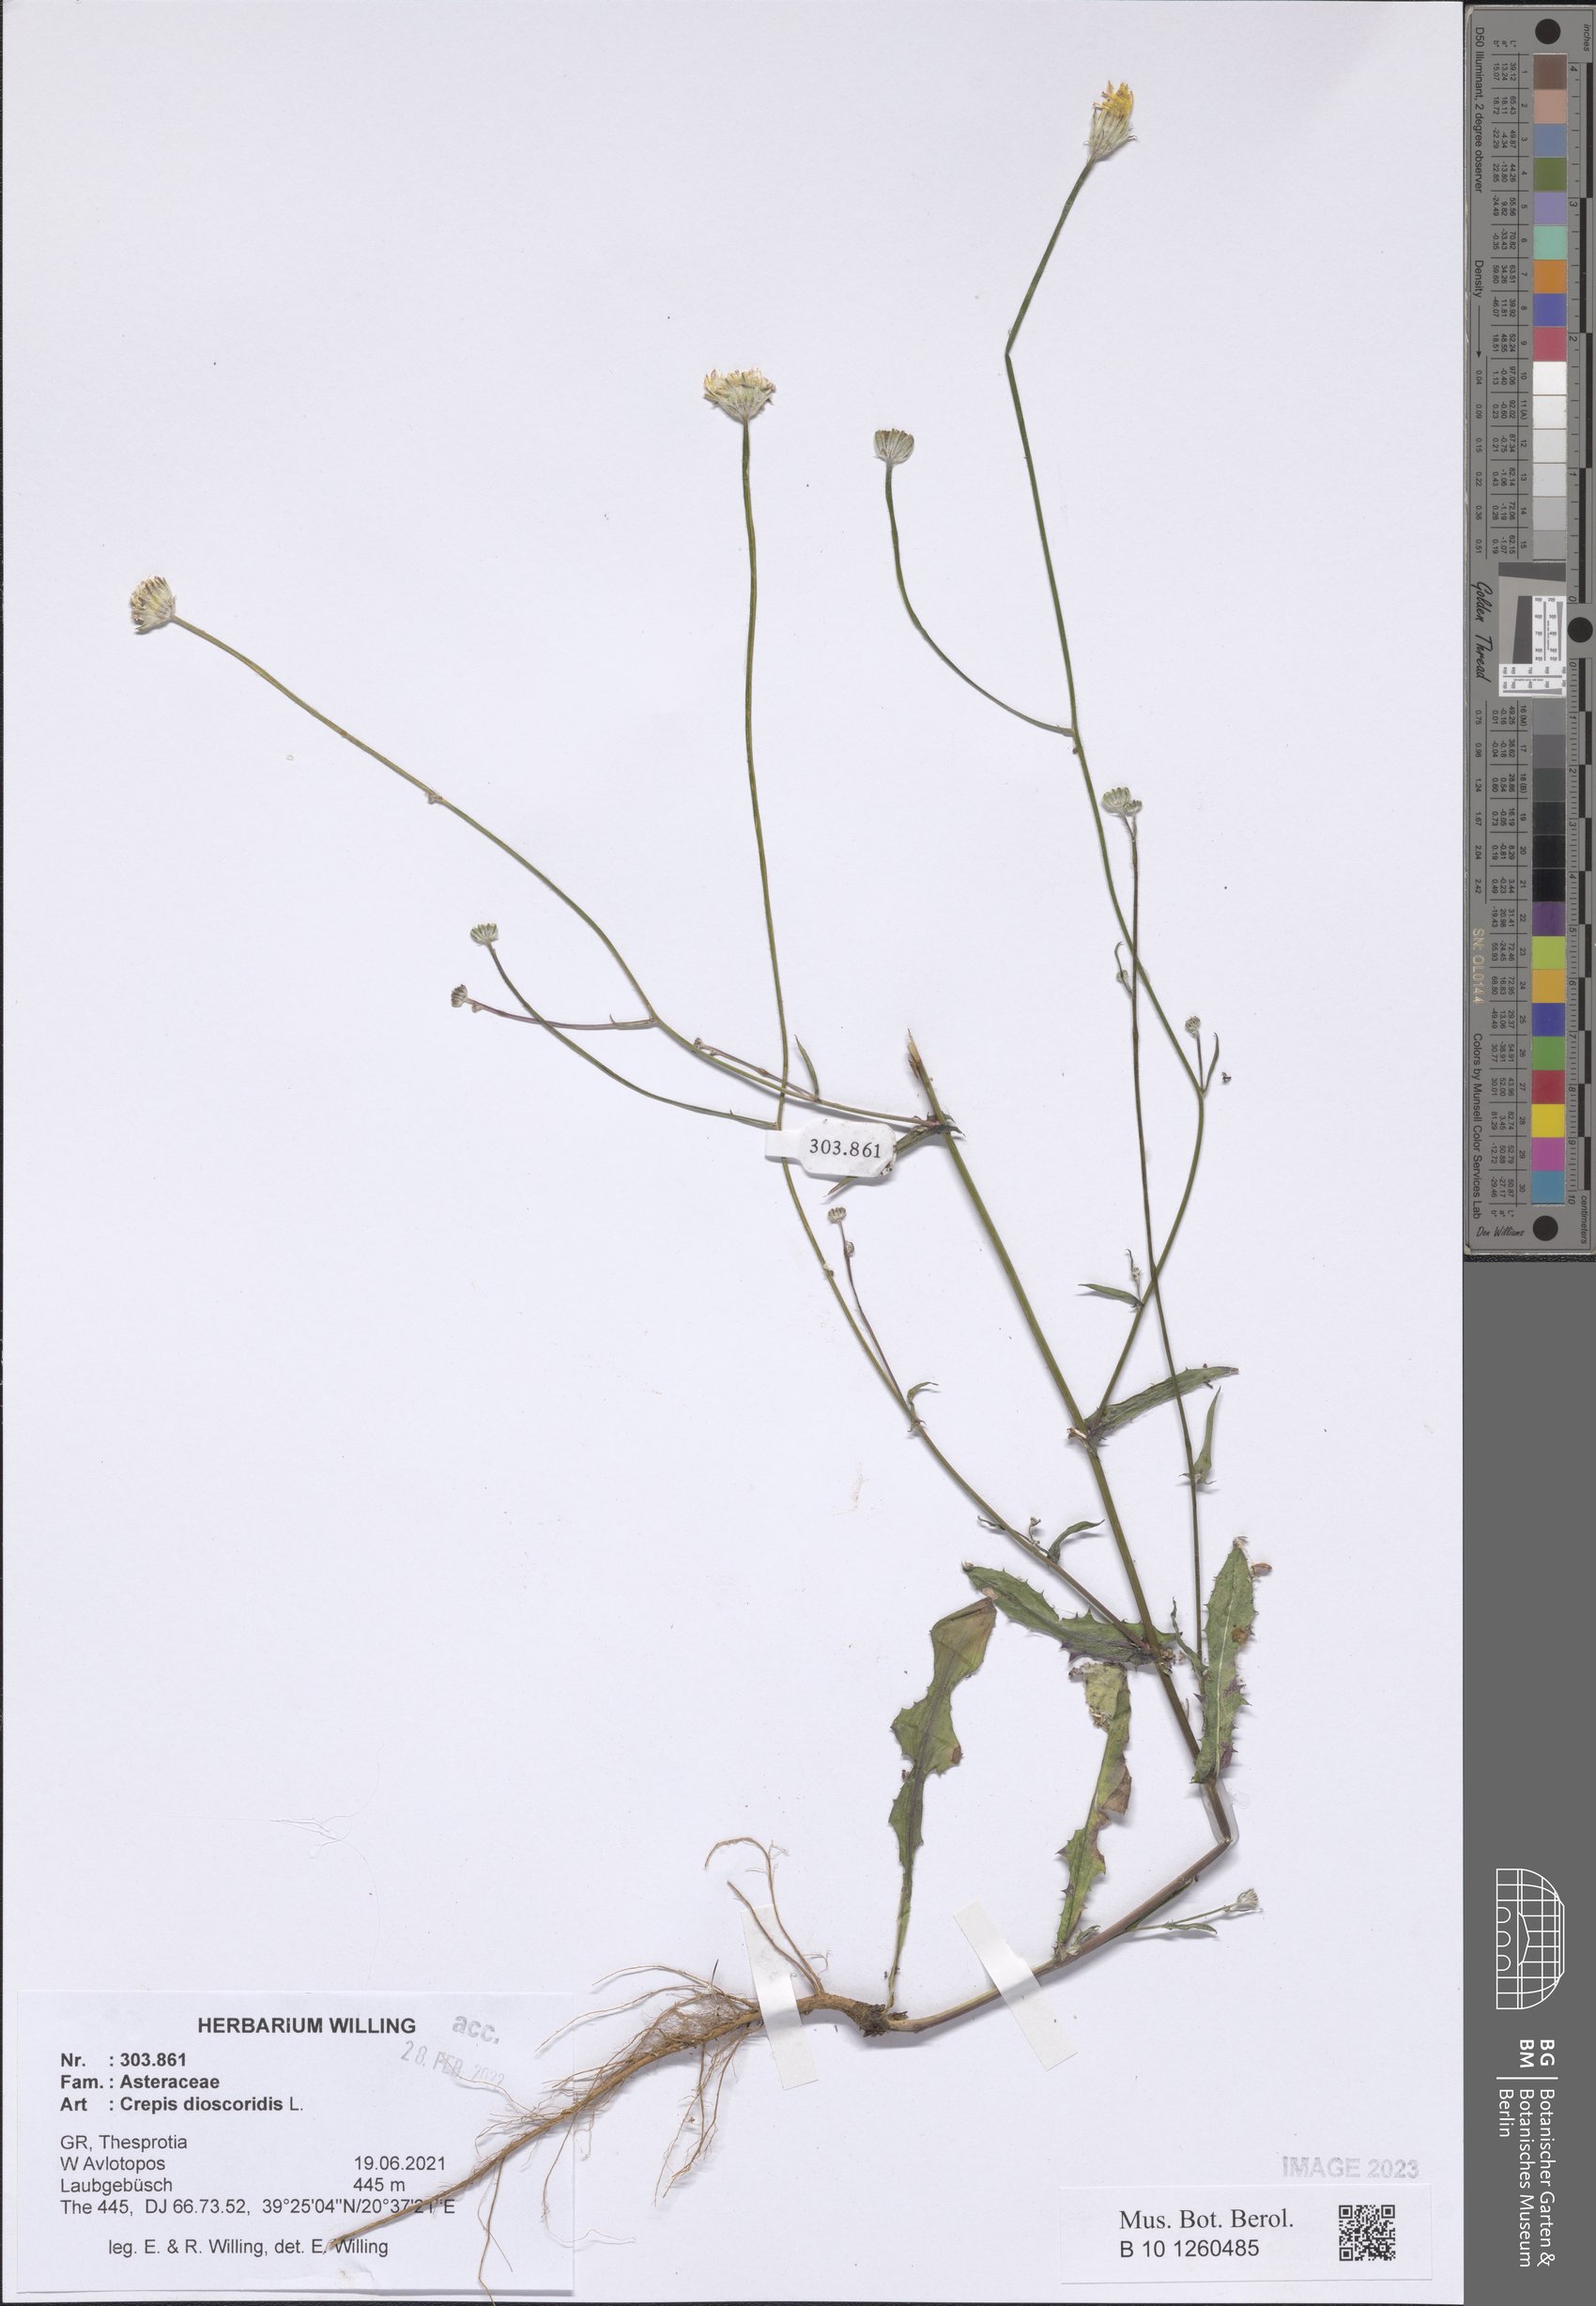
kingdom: Plantae
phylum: Tracheophyta
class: Magnoliopsida
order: Asterales
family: Asteraceae
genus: Crepis
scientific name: Crepis dioscoridis
